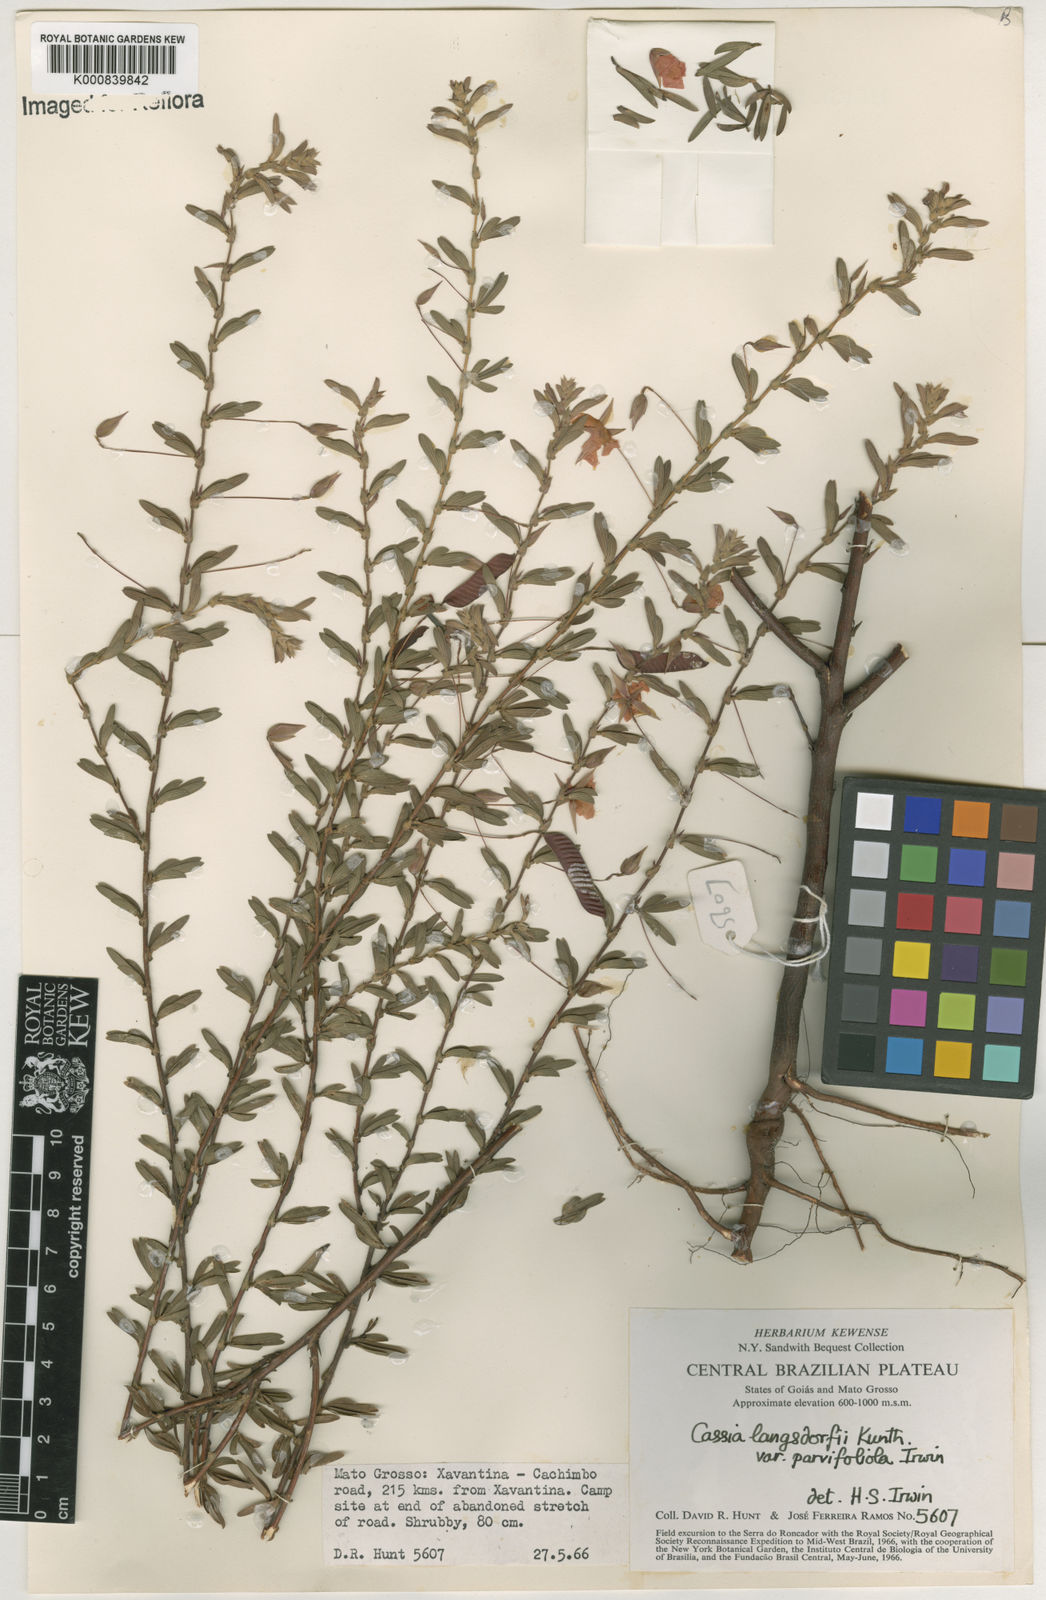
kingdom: Plantae
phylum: Tracheophyta
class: Magnoliopsida
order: Fabales
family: Fabaceae
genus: Chamaecrista
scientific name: Chamaecrista ramosa
